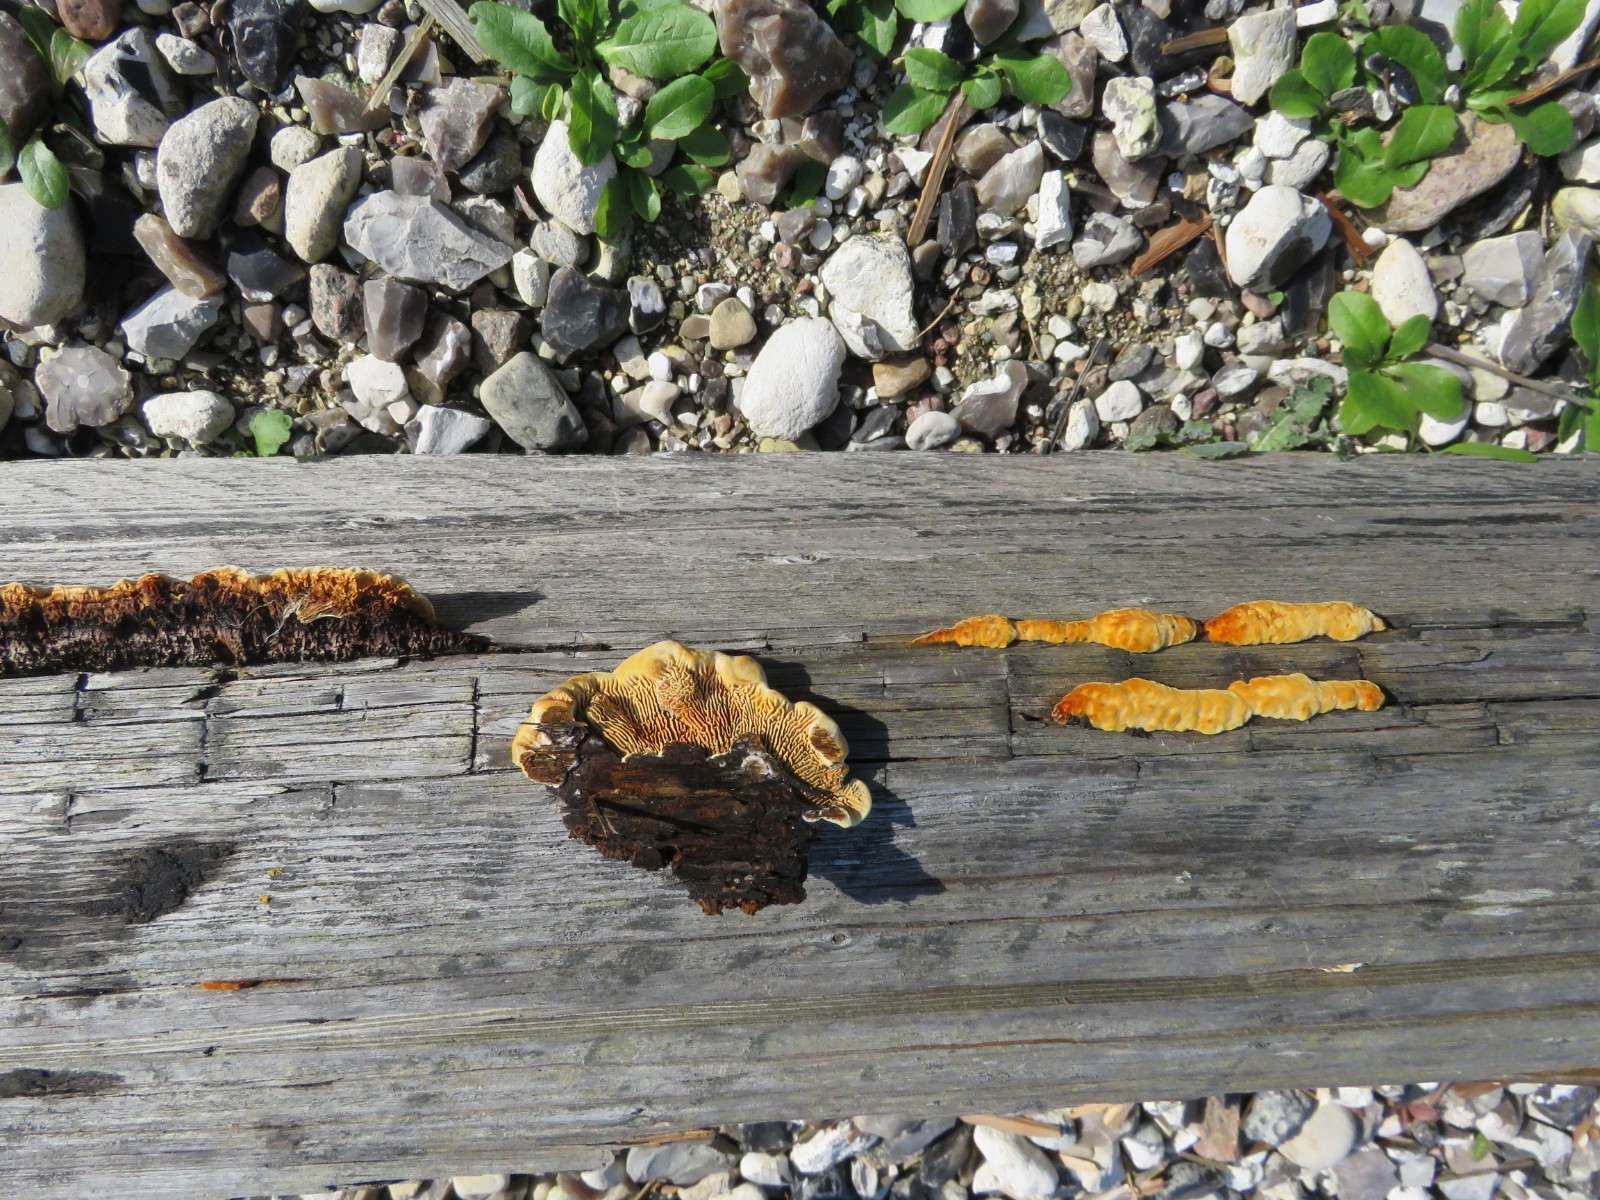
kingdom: Fungi
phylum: Basidiomycota
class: Agaricomycetes
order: Gloeophyllales
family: Gloeophyllaceae
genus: Gloeophyllum
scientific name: Gloeophyllum sepiarium
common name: fyrre-korkhat
